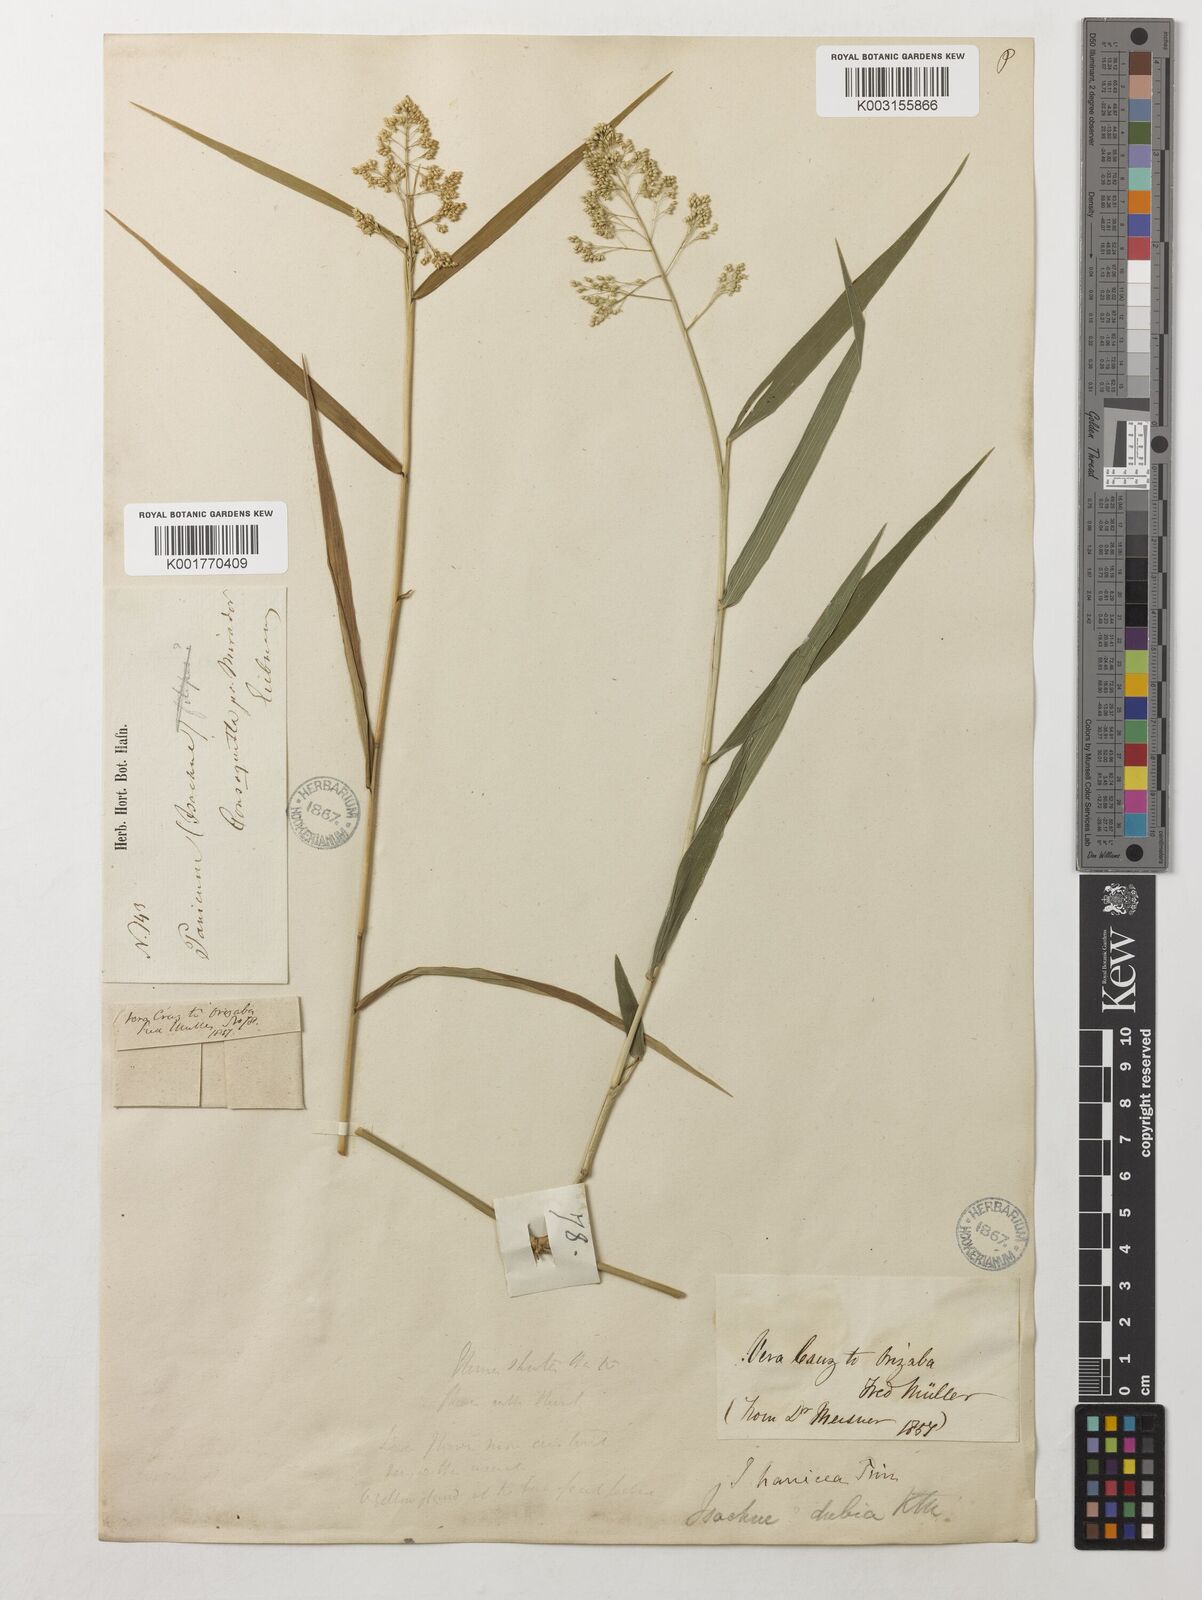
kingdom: Plantae
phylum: Tracheophyta
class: Liliopsida
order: Poales
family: Poaceae
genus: Isachne
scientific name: Isachne arundinacea
